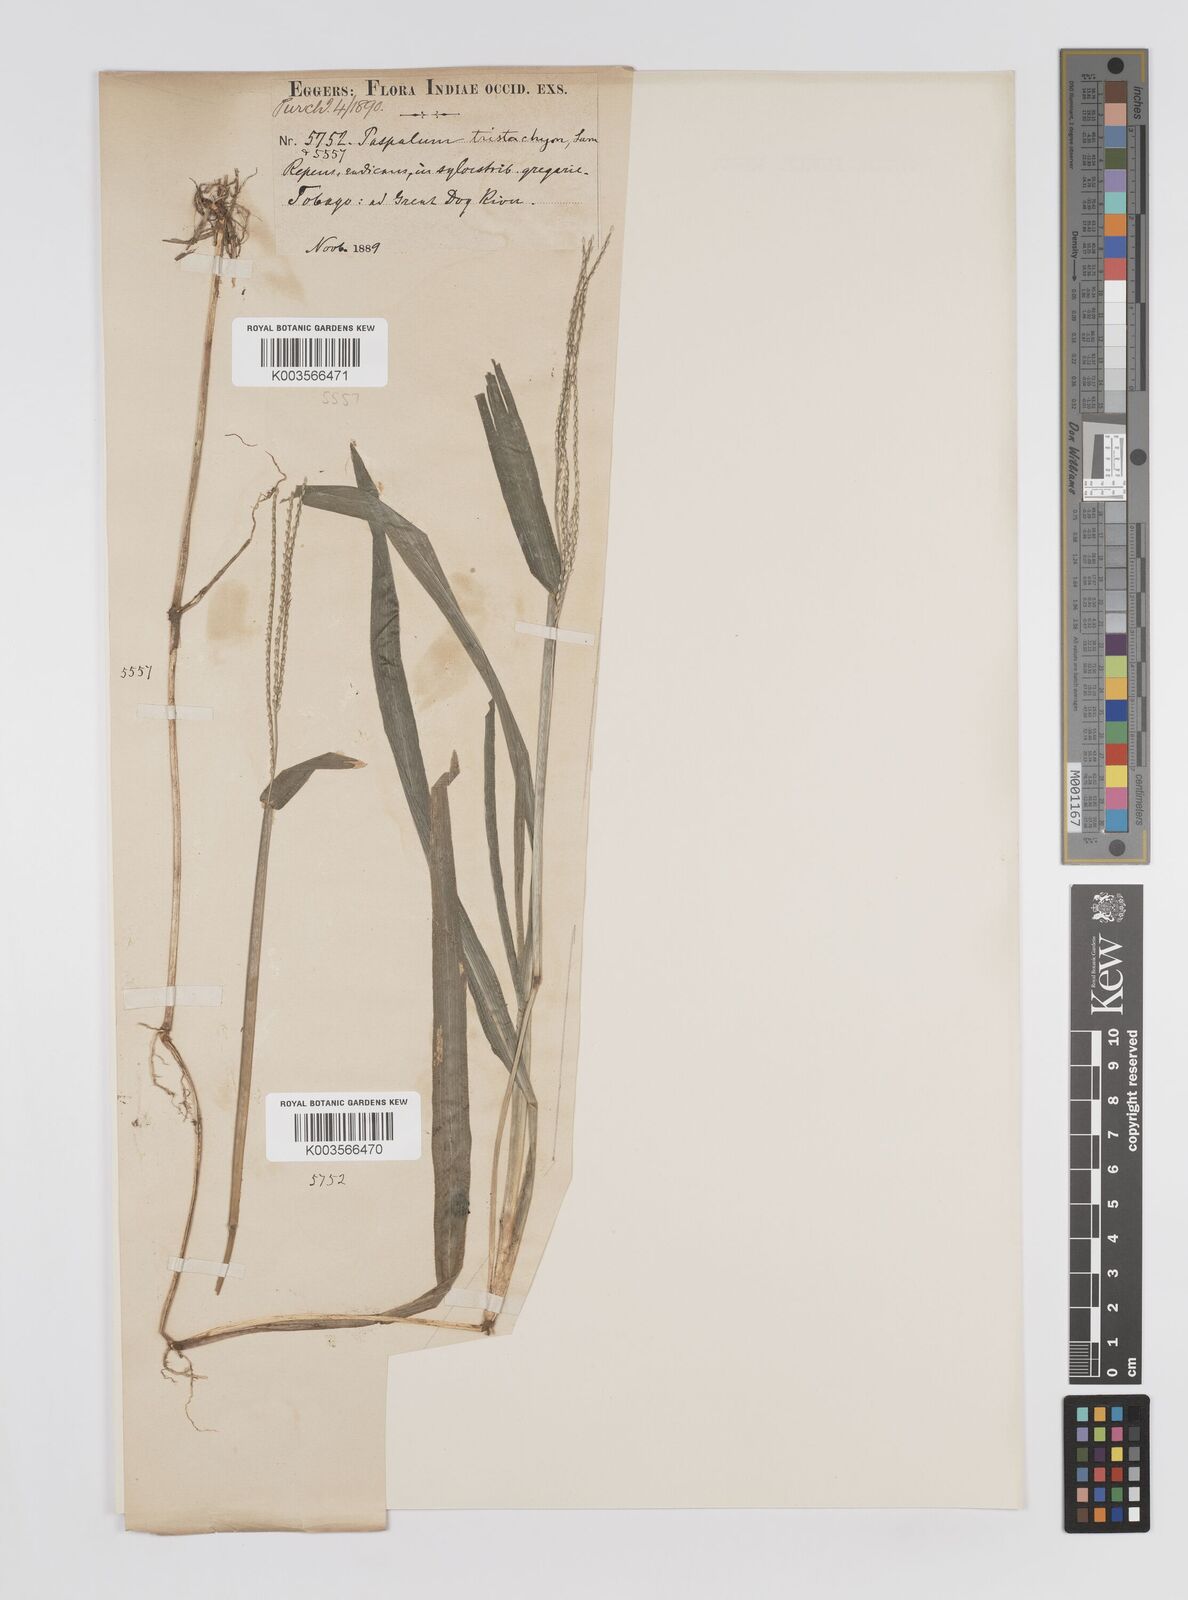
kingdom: Plantae
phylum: Tracheophyta
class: Liliopsida
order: Poales
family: Poaceae
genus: Axonopus
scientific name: Axonopus compressus
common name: American carpet grass
